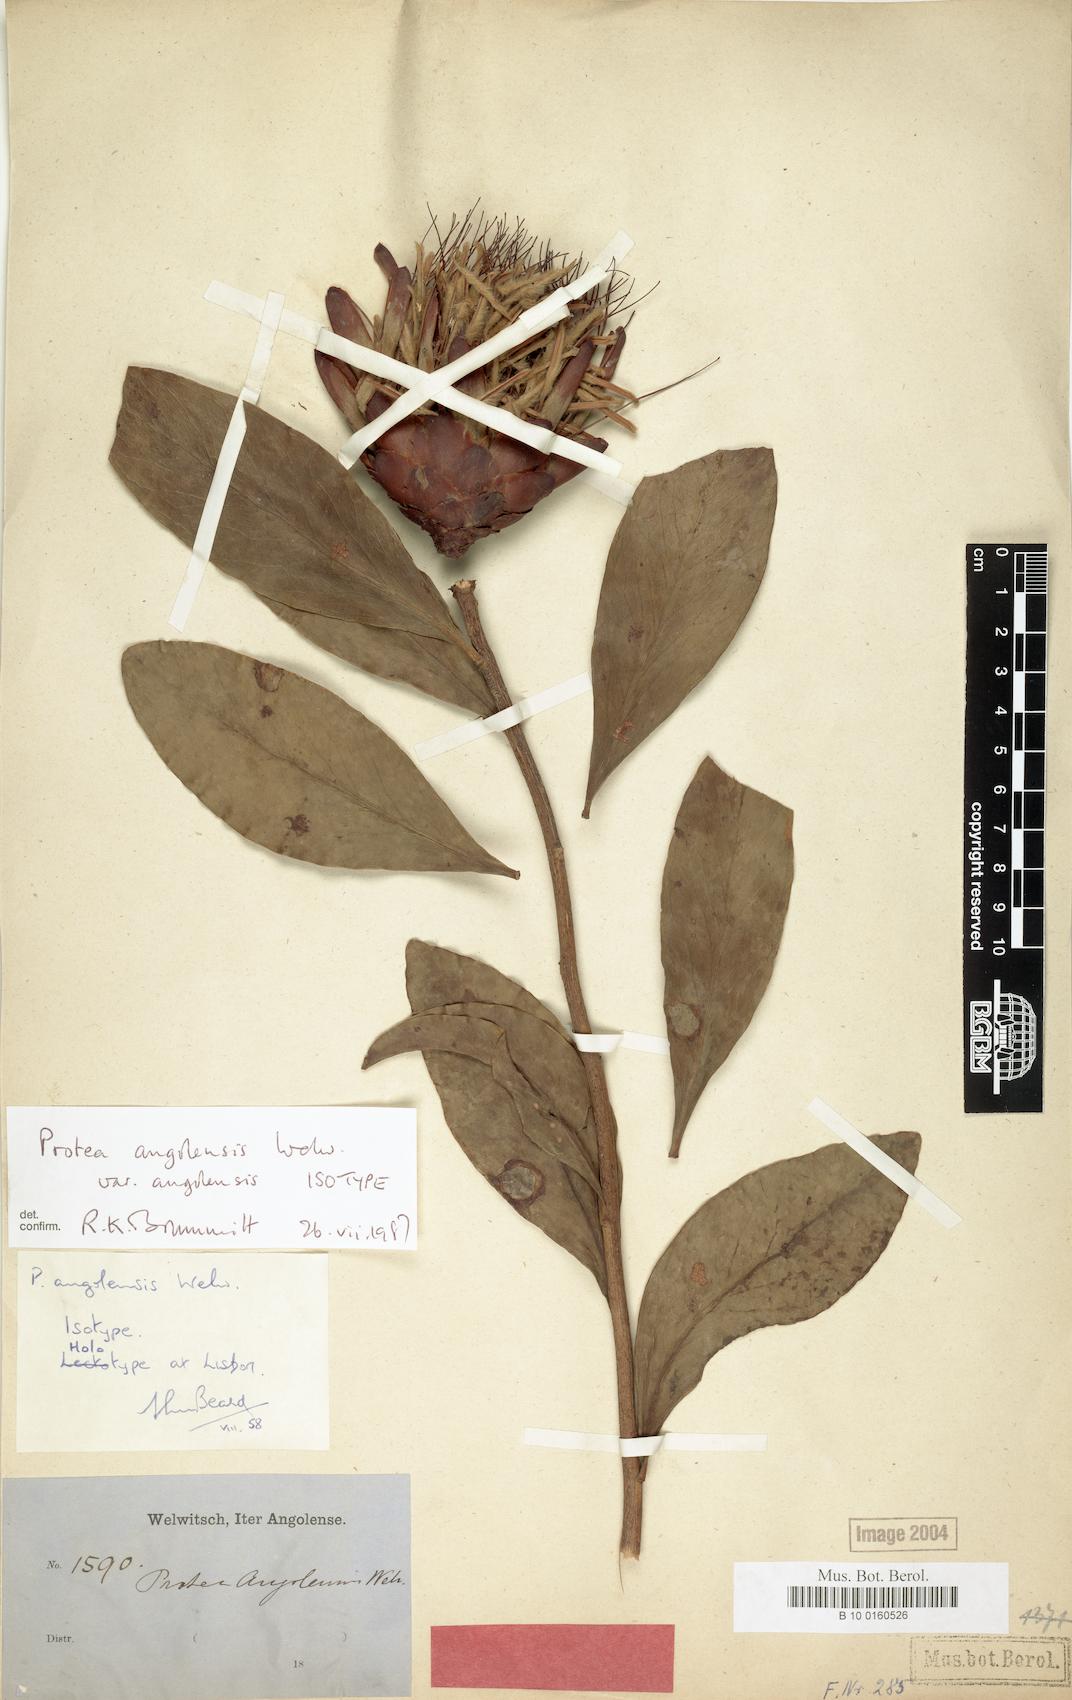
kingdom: Plantae
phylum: Tracheophyta
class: Magnoliopsida
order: Proteales
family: Proteaceae
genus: Protea
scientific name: Protea angolensis
